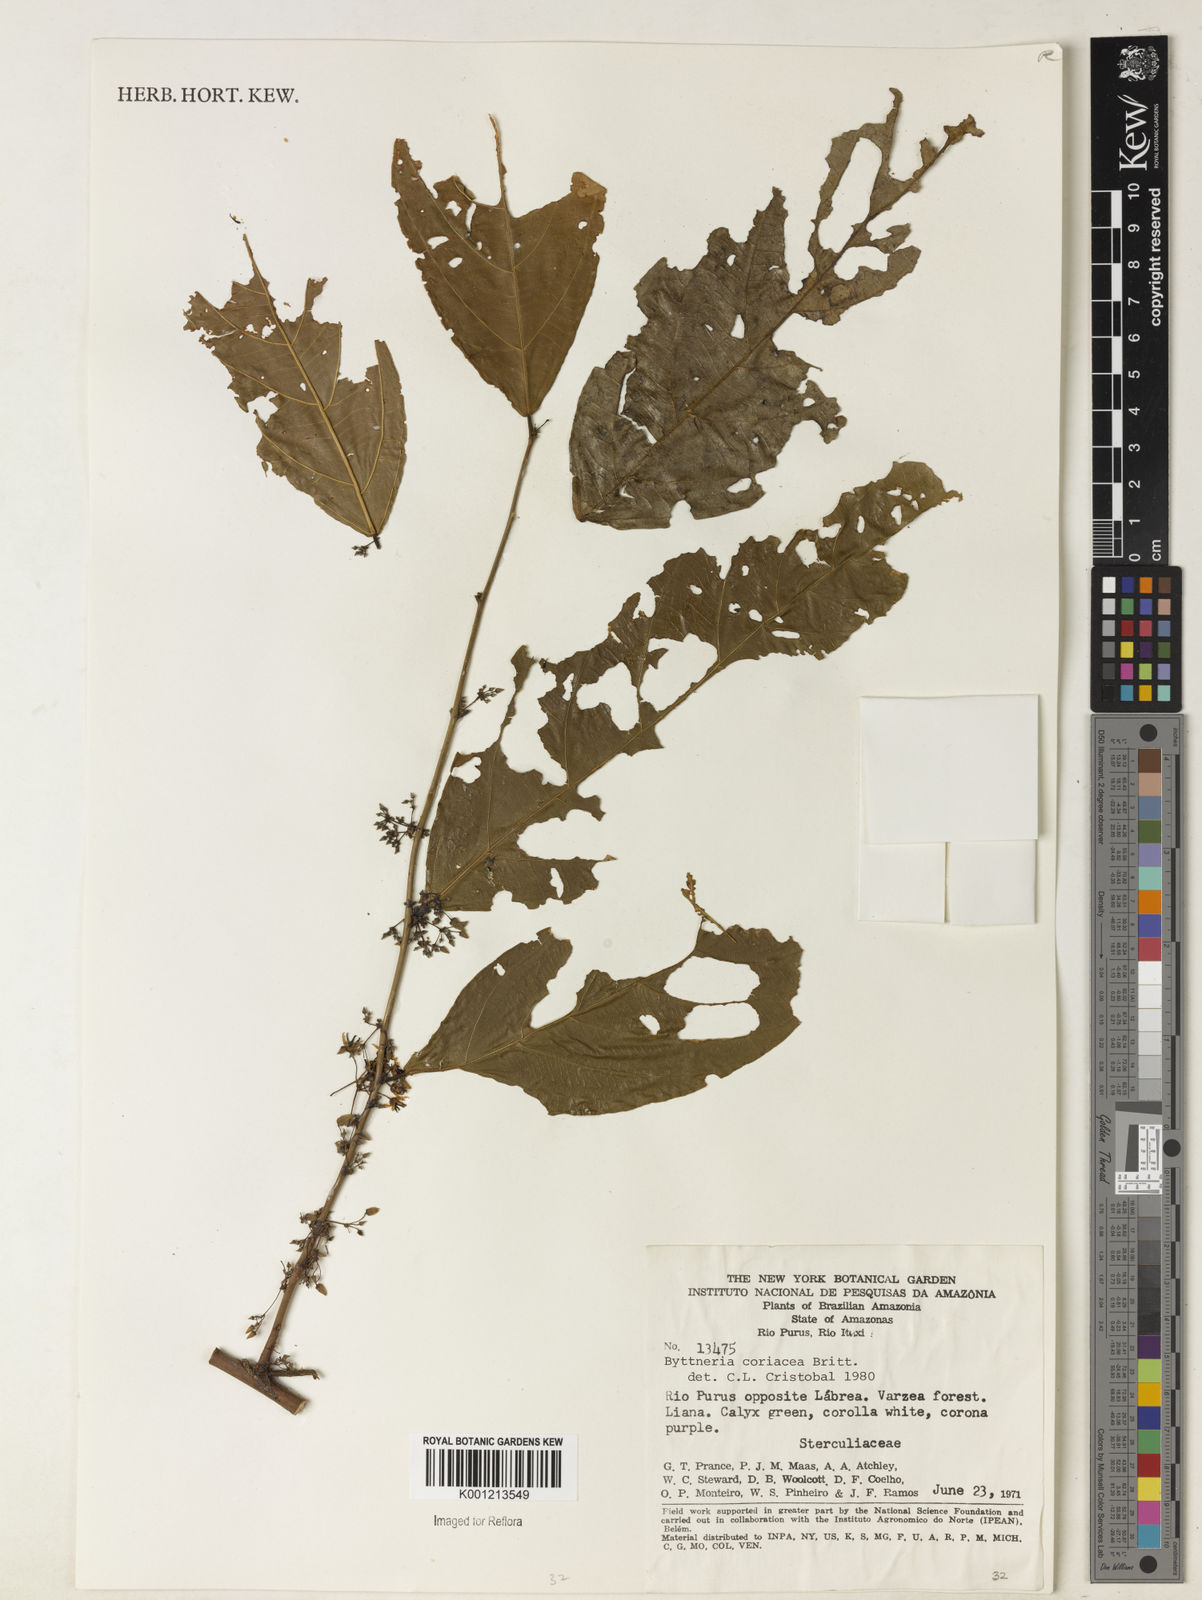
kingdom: Plantae
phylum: Tracheophyta
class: Magnoliopsida
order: Malvales
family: Malvaceae
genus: Byttneria
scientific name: Byttneria coriacea
